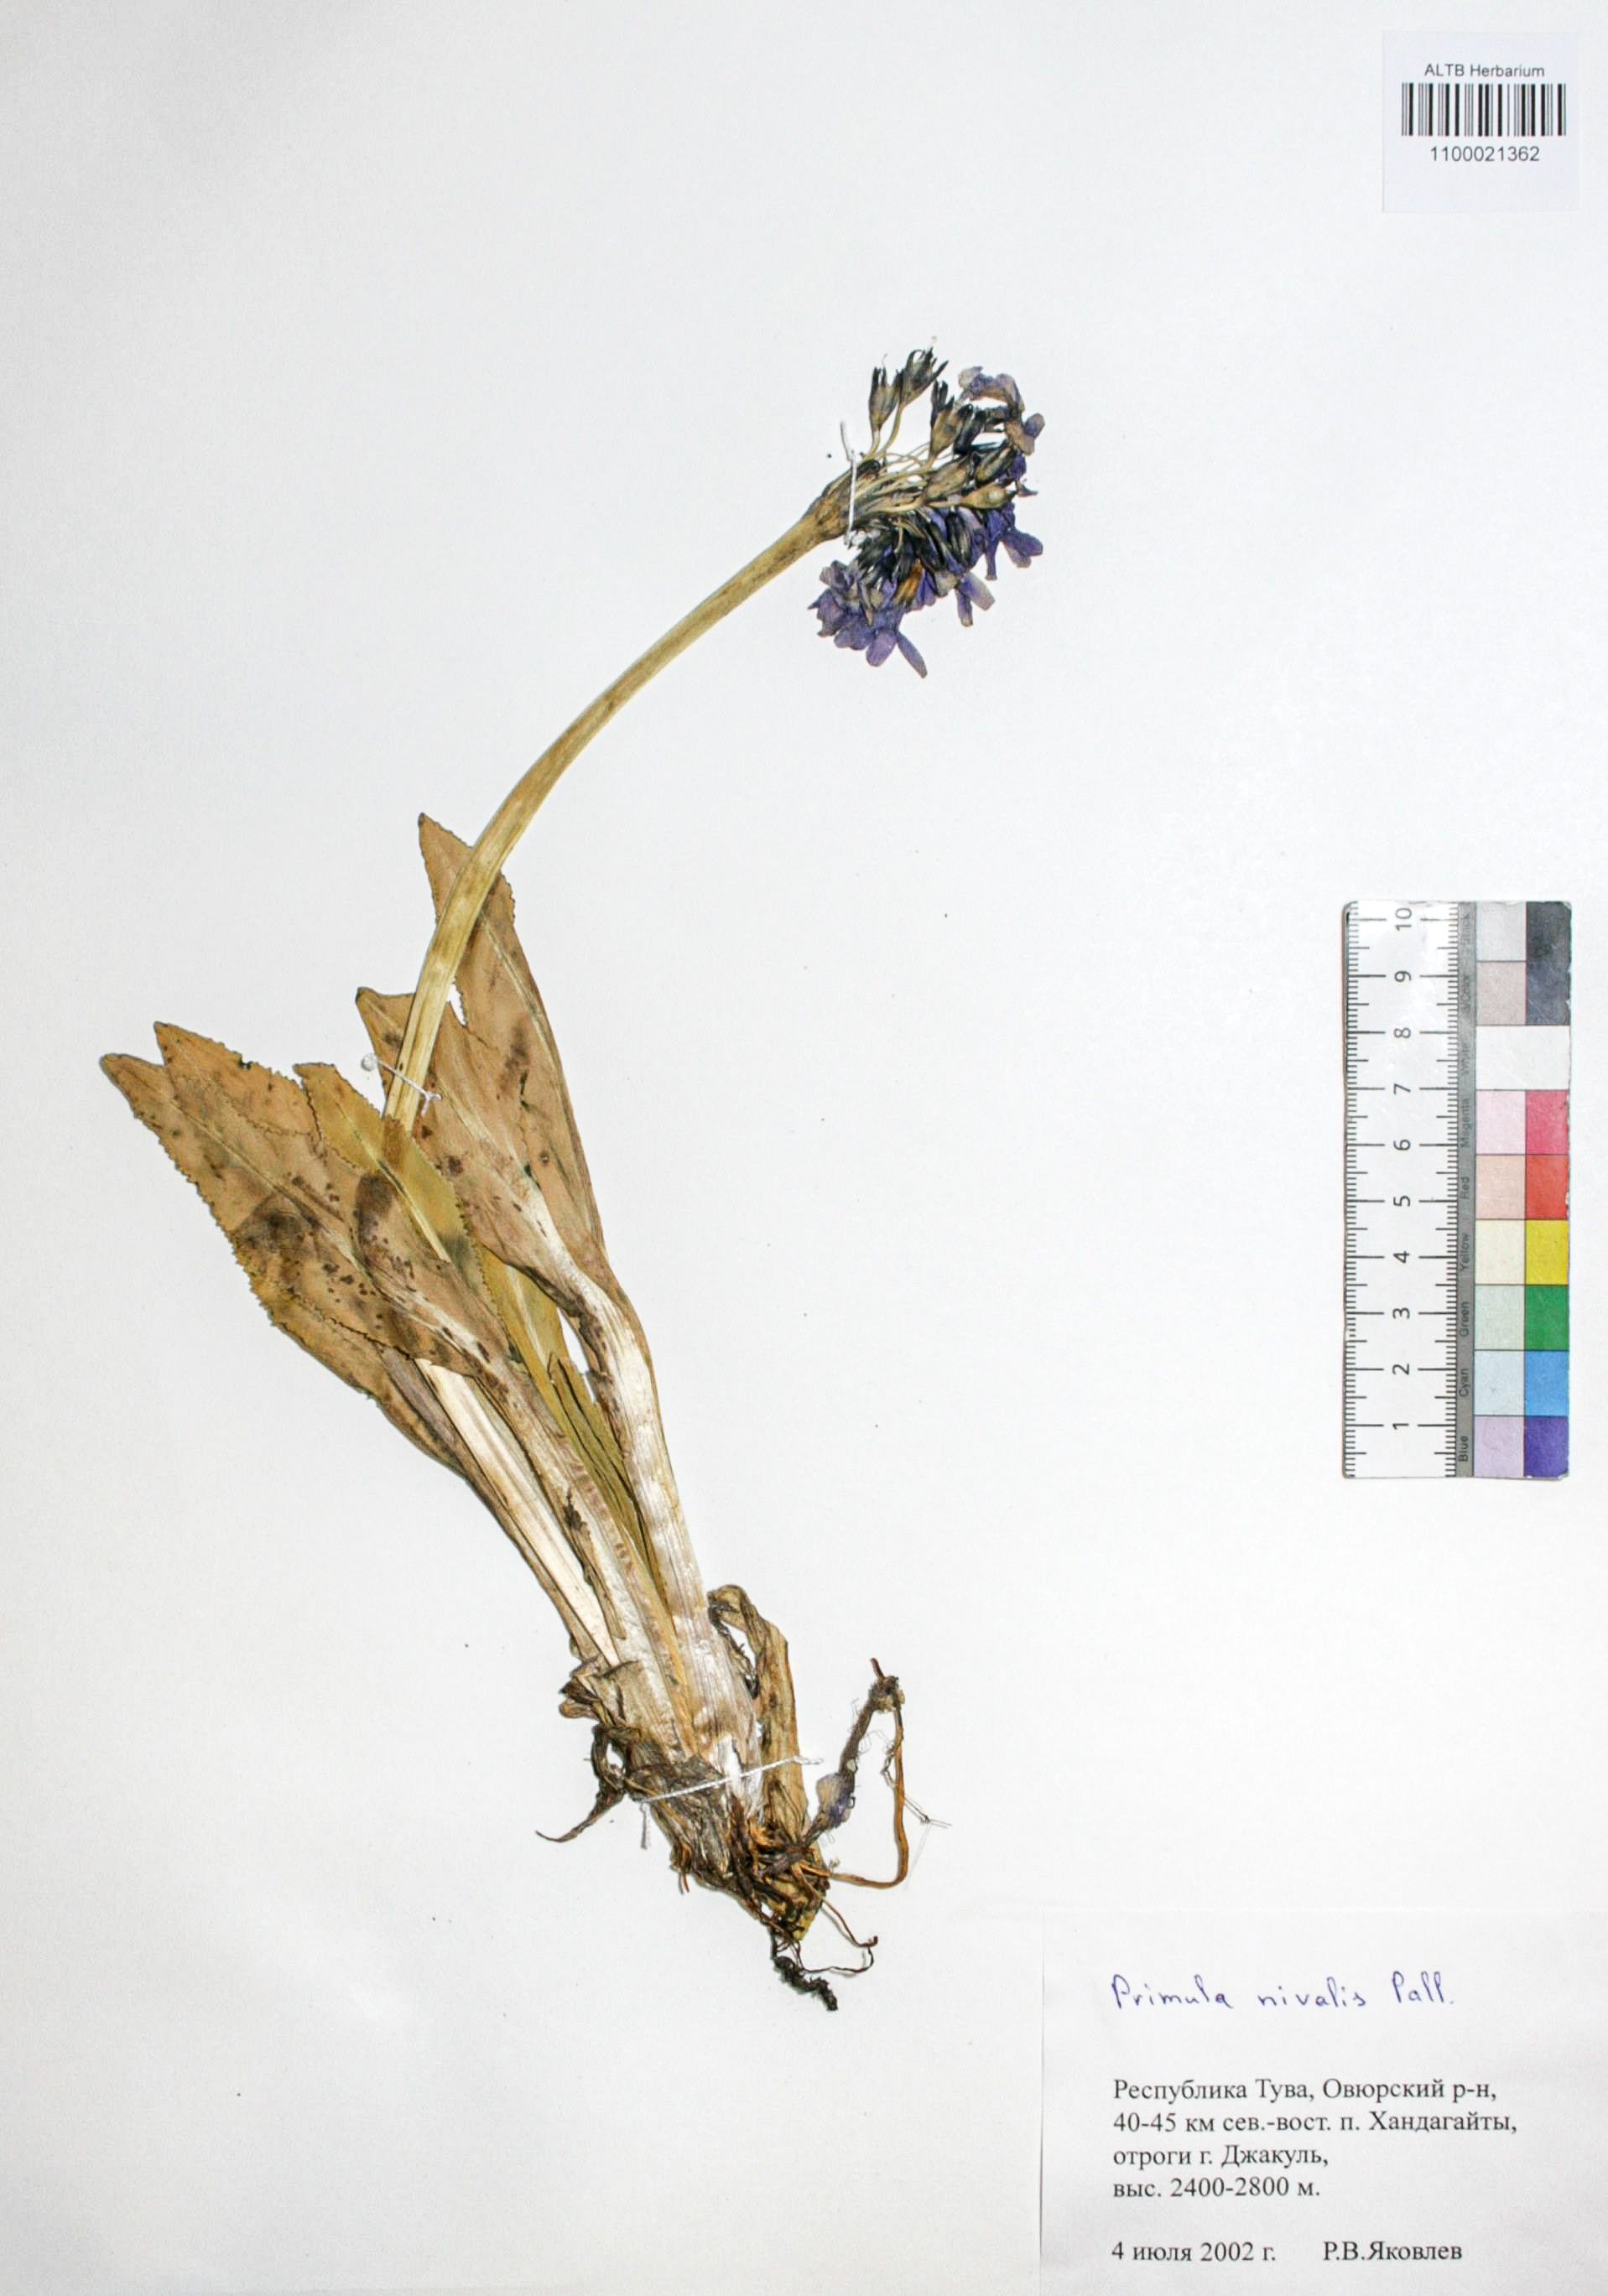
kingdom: Plantae
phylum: Tracheophyta
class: Magnoliopsida
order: Ericales
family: Primulaceae
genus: Primula
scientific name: Primula nivalis
